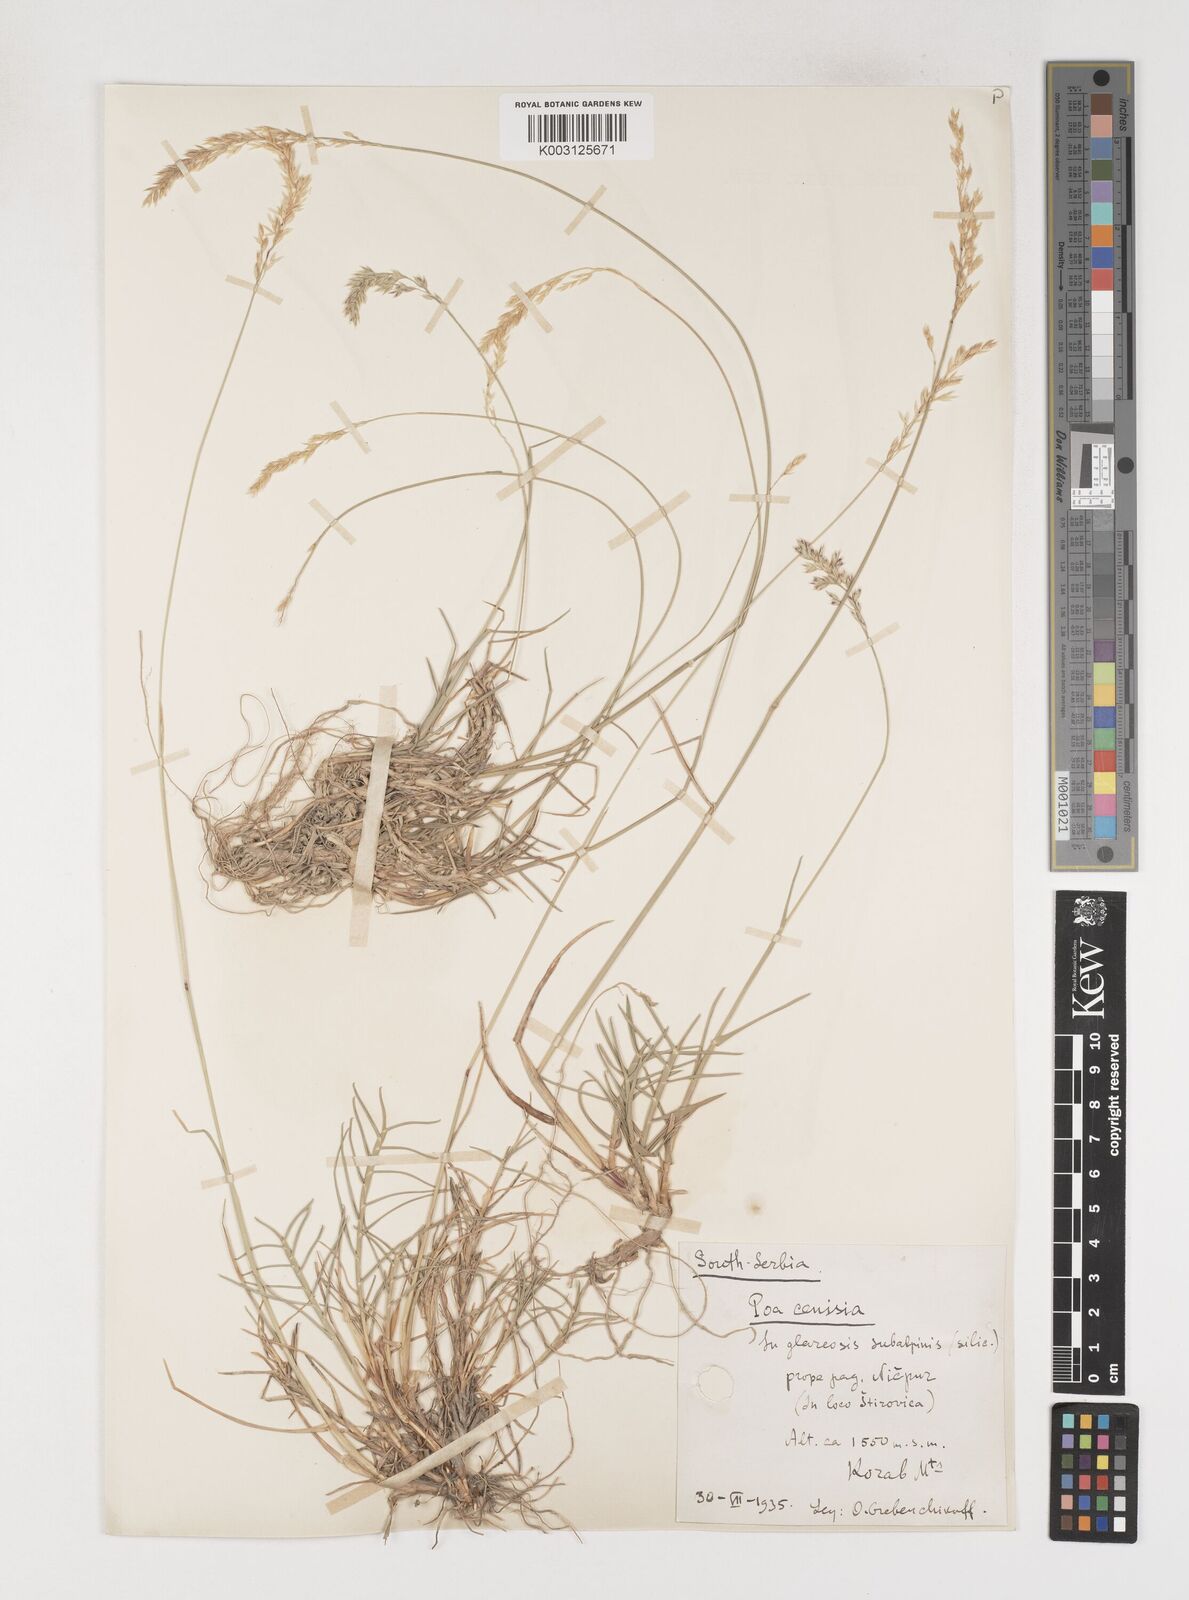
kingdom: Plantae
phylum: Tracheophyta
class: Liliopsida
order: Poales
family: Poaceae
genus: Poa
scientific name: Poa
